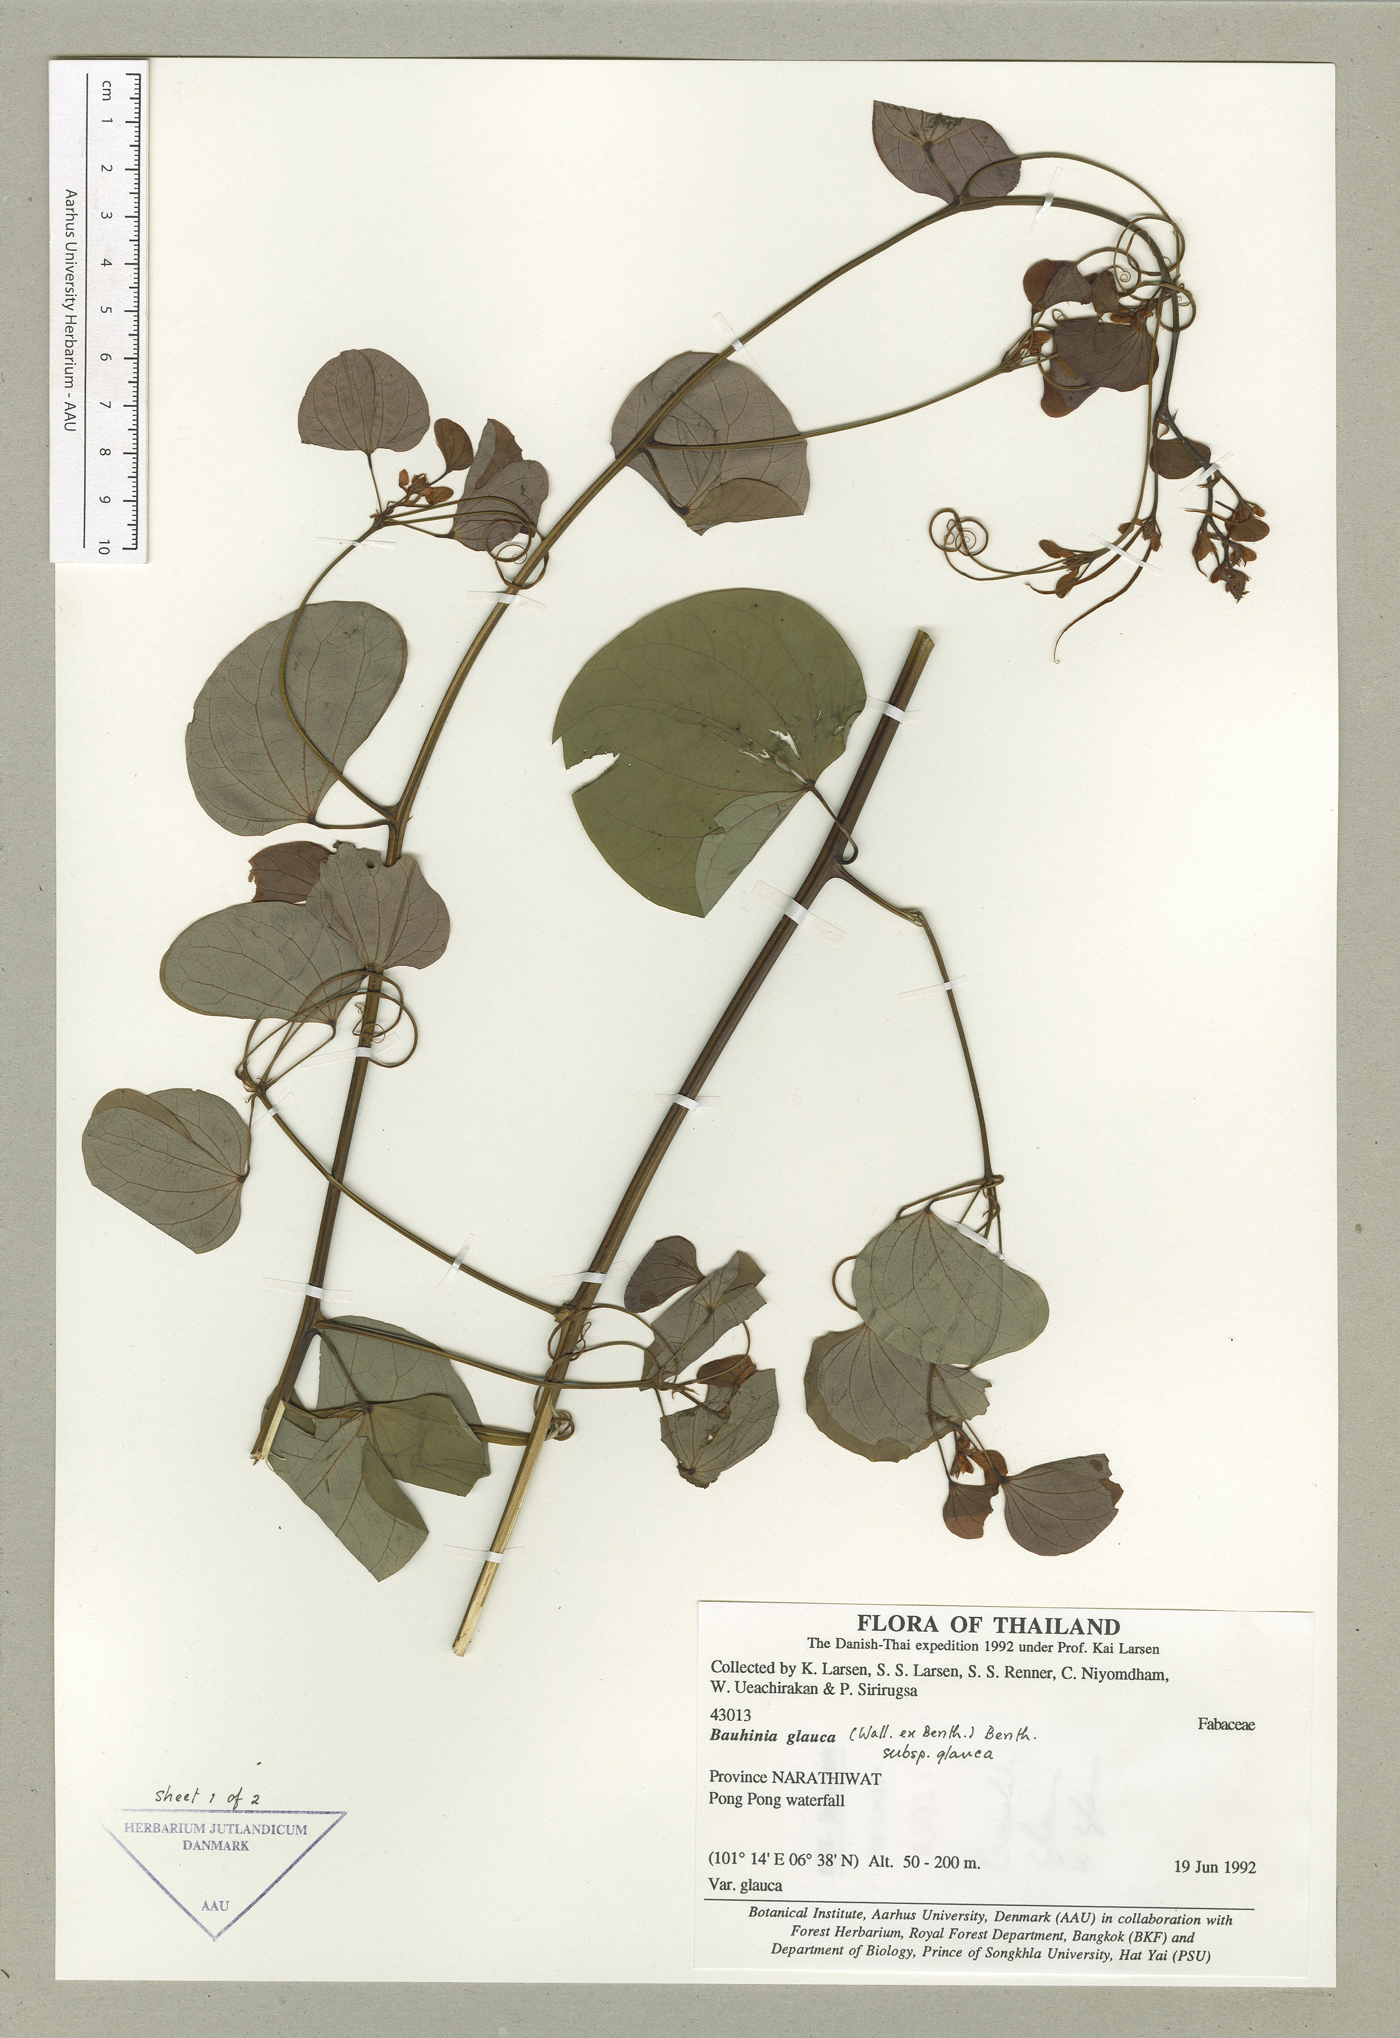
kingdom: Plantae
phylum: Tracheophyta
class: Magnoliopsida
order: Fabales
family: Fabaceae
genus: Bauhinia
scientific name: Bauhinia glauca
